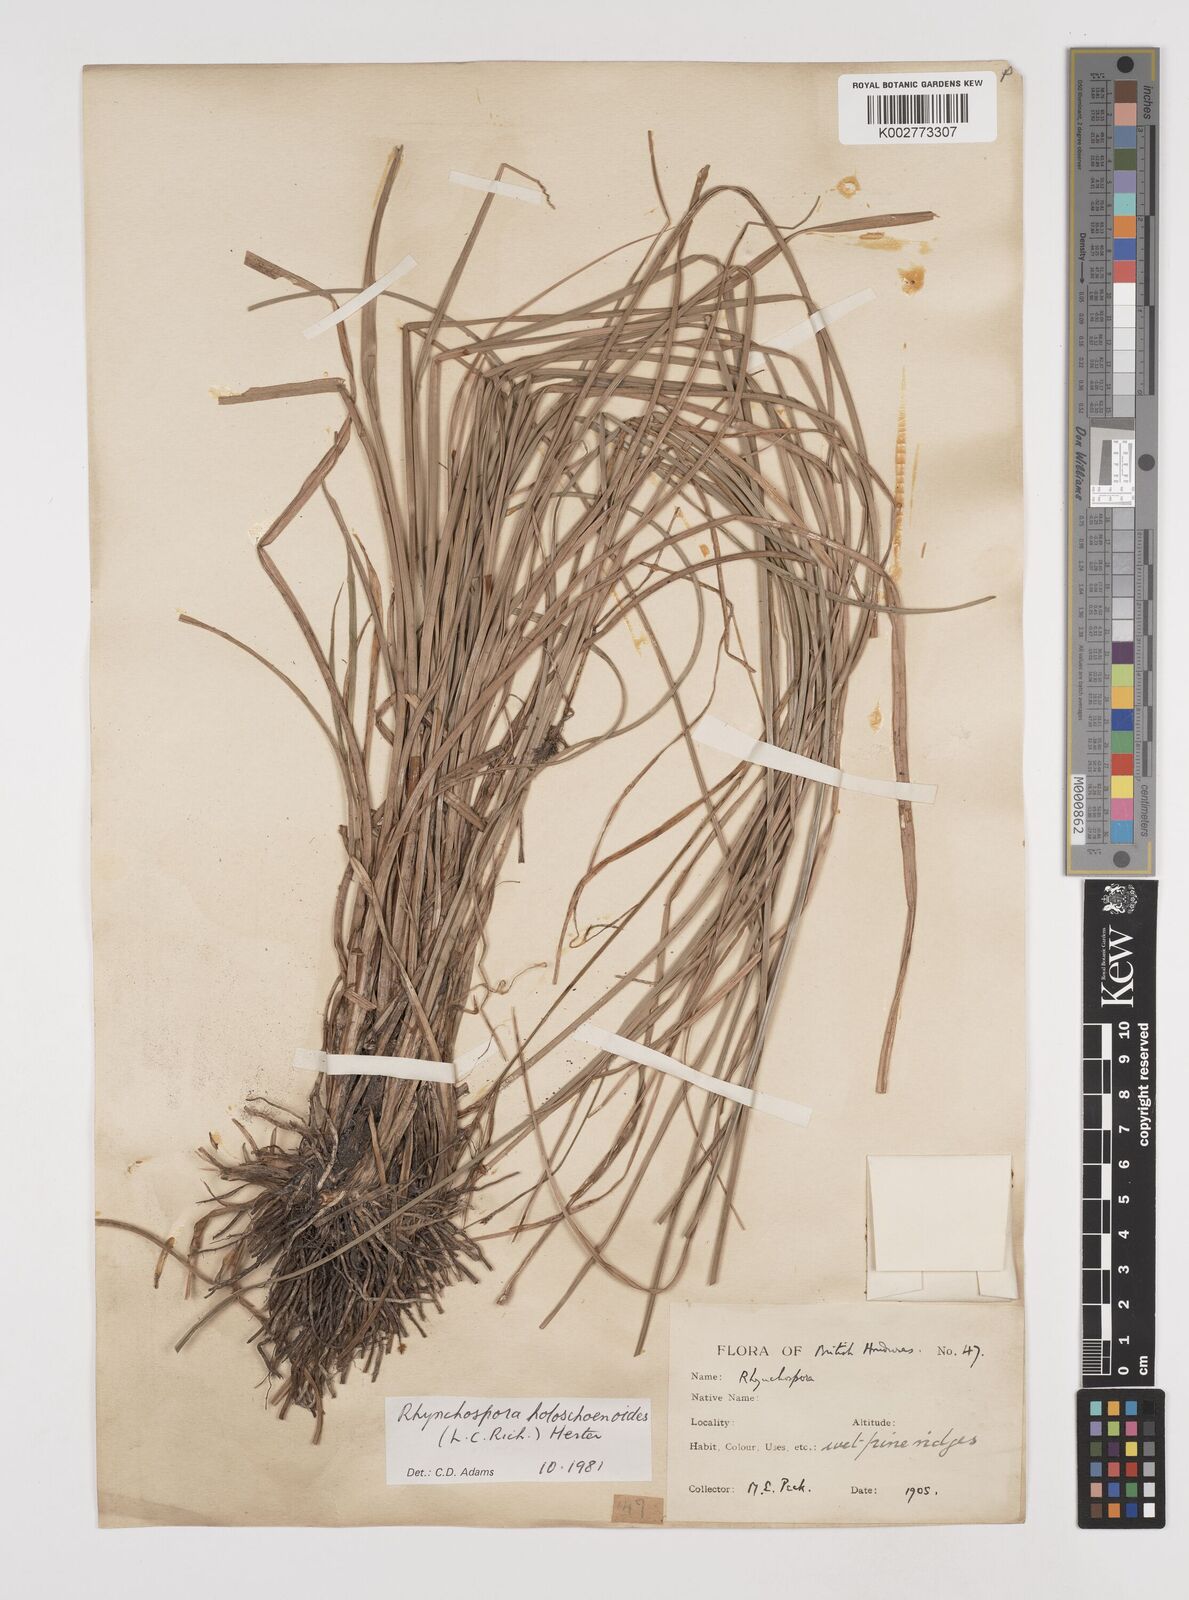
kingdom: Plantae
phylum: Tracheophyta
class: Liliopsida
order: Poales
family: Cyperaceae
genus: Rhynchospora
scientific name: Rhynchospora holoschoenoides
